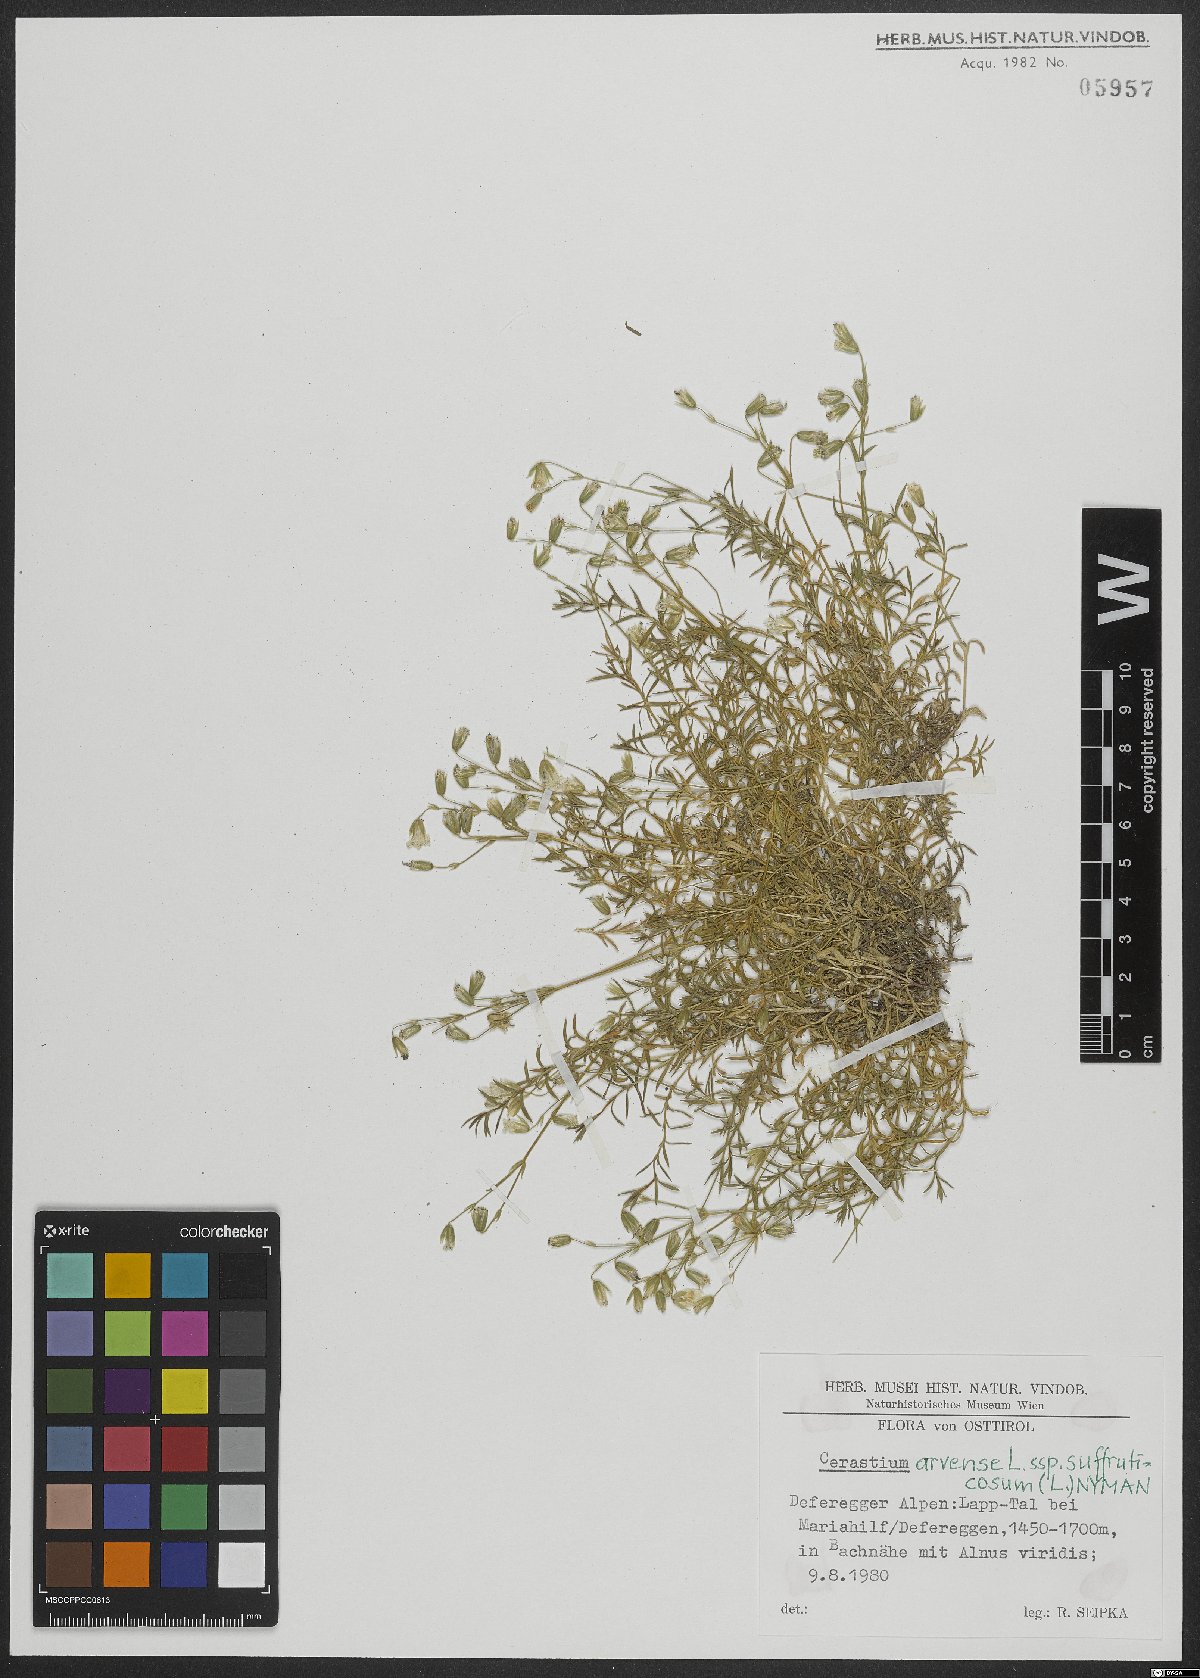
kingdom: Plantae
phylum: Tracheophyta
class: Magnoliopsida
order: Caryophyllales
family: Caryophyllaceae
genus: Cerastium
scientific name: Cerastium arvense
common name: Field mouse-ear
